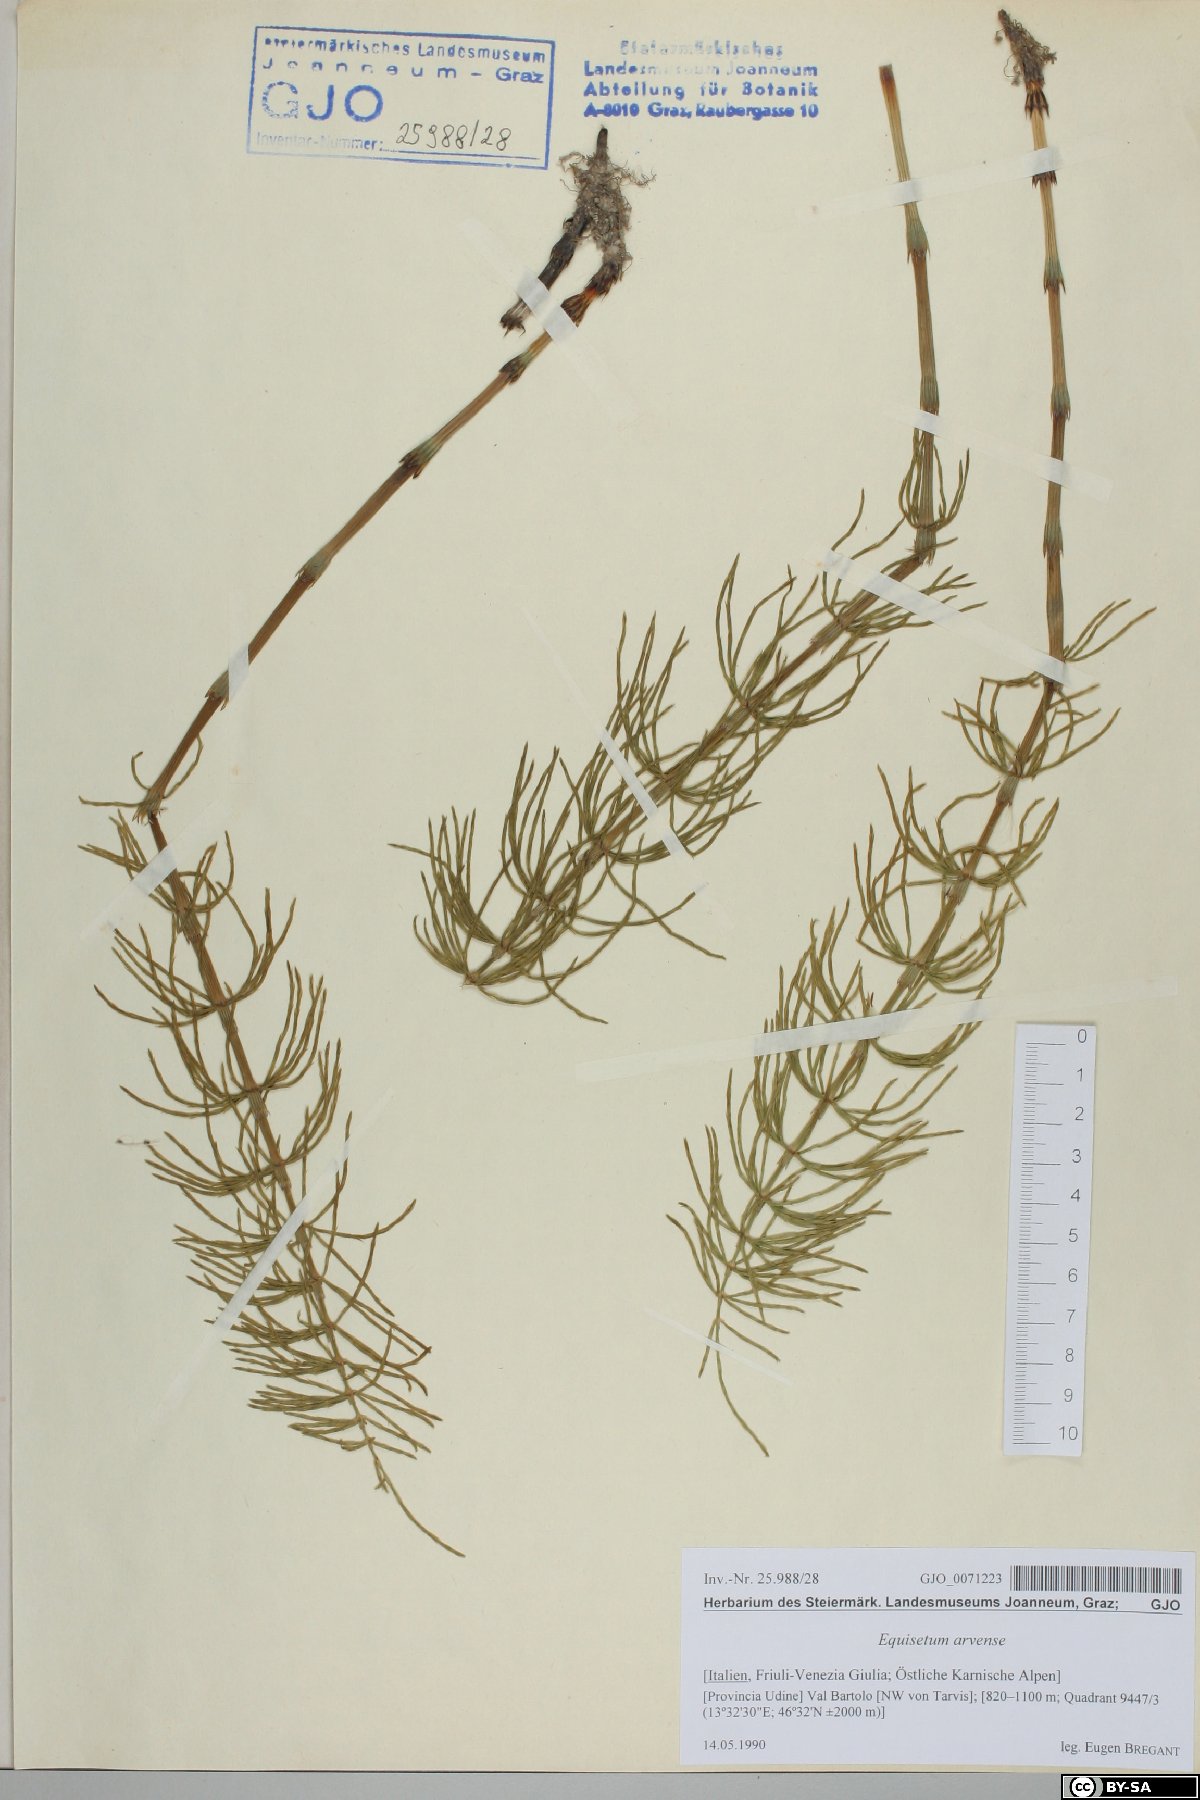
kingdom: Plantae
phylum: Tracheophyta
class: Polypodiopsida
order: Equisetales
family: Equisetaceae
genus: Equisetum
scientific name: Equisetum arvense
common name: Field horsetail
